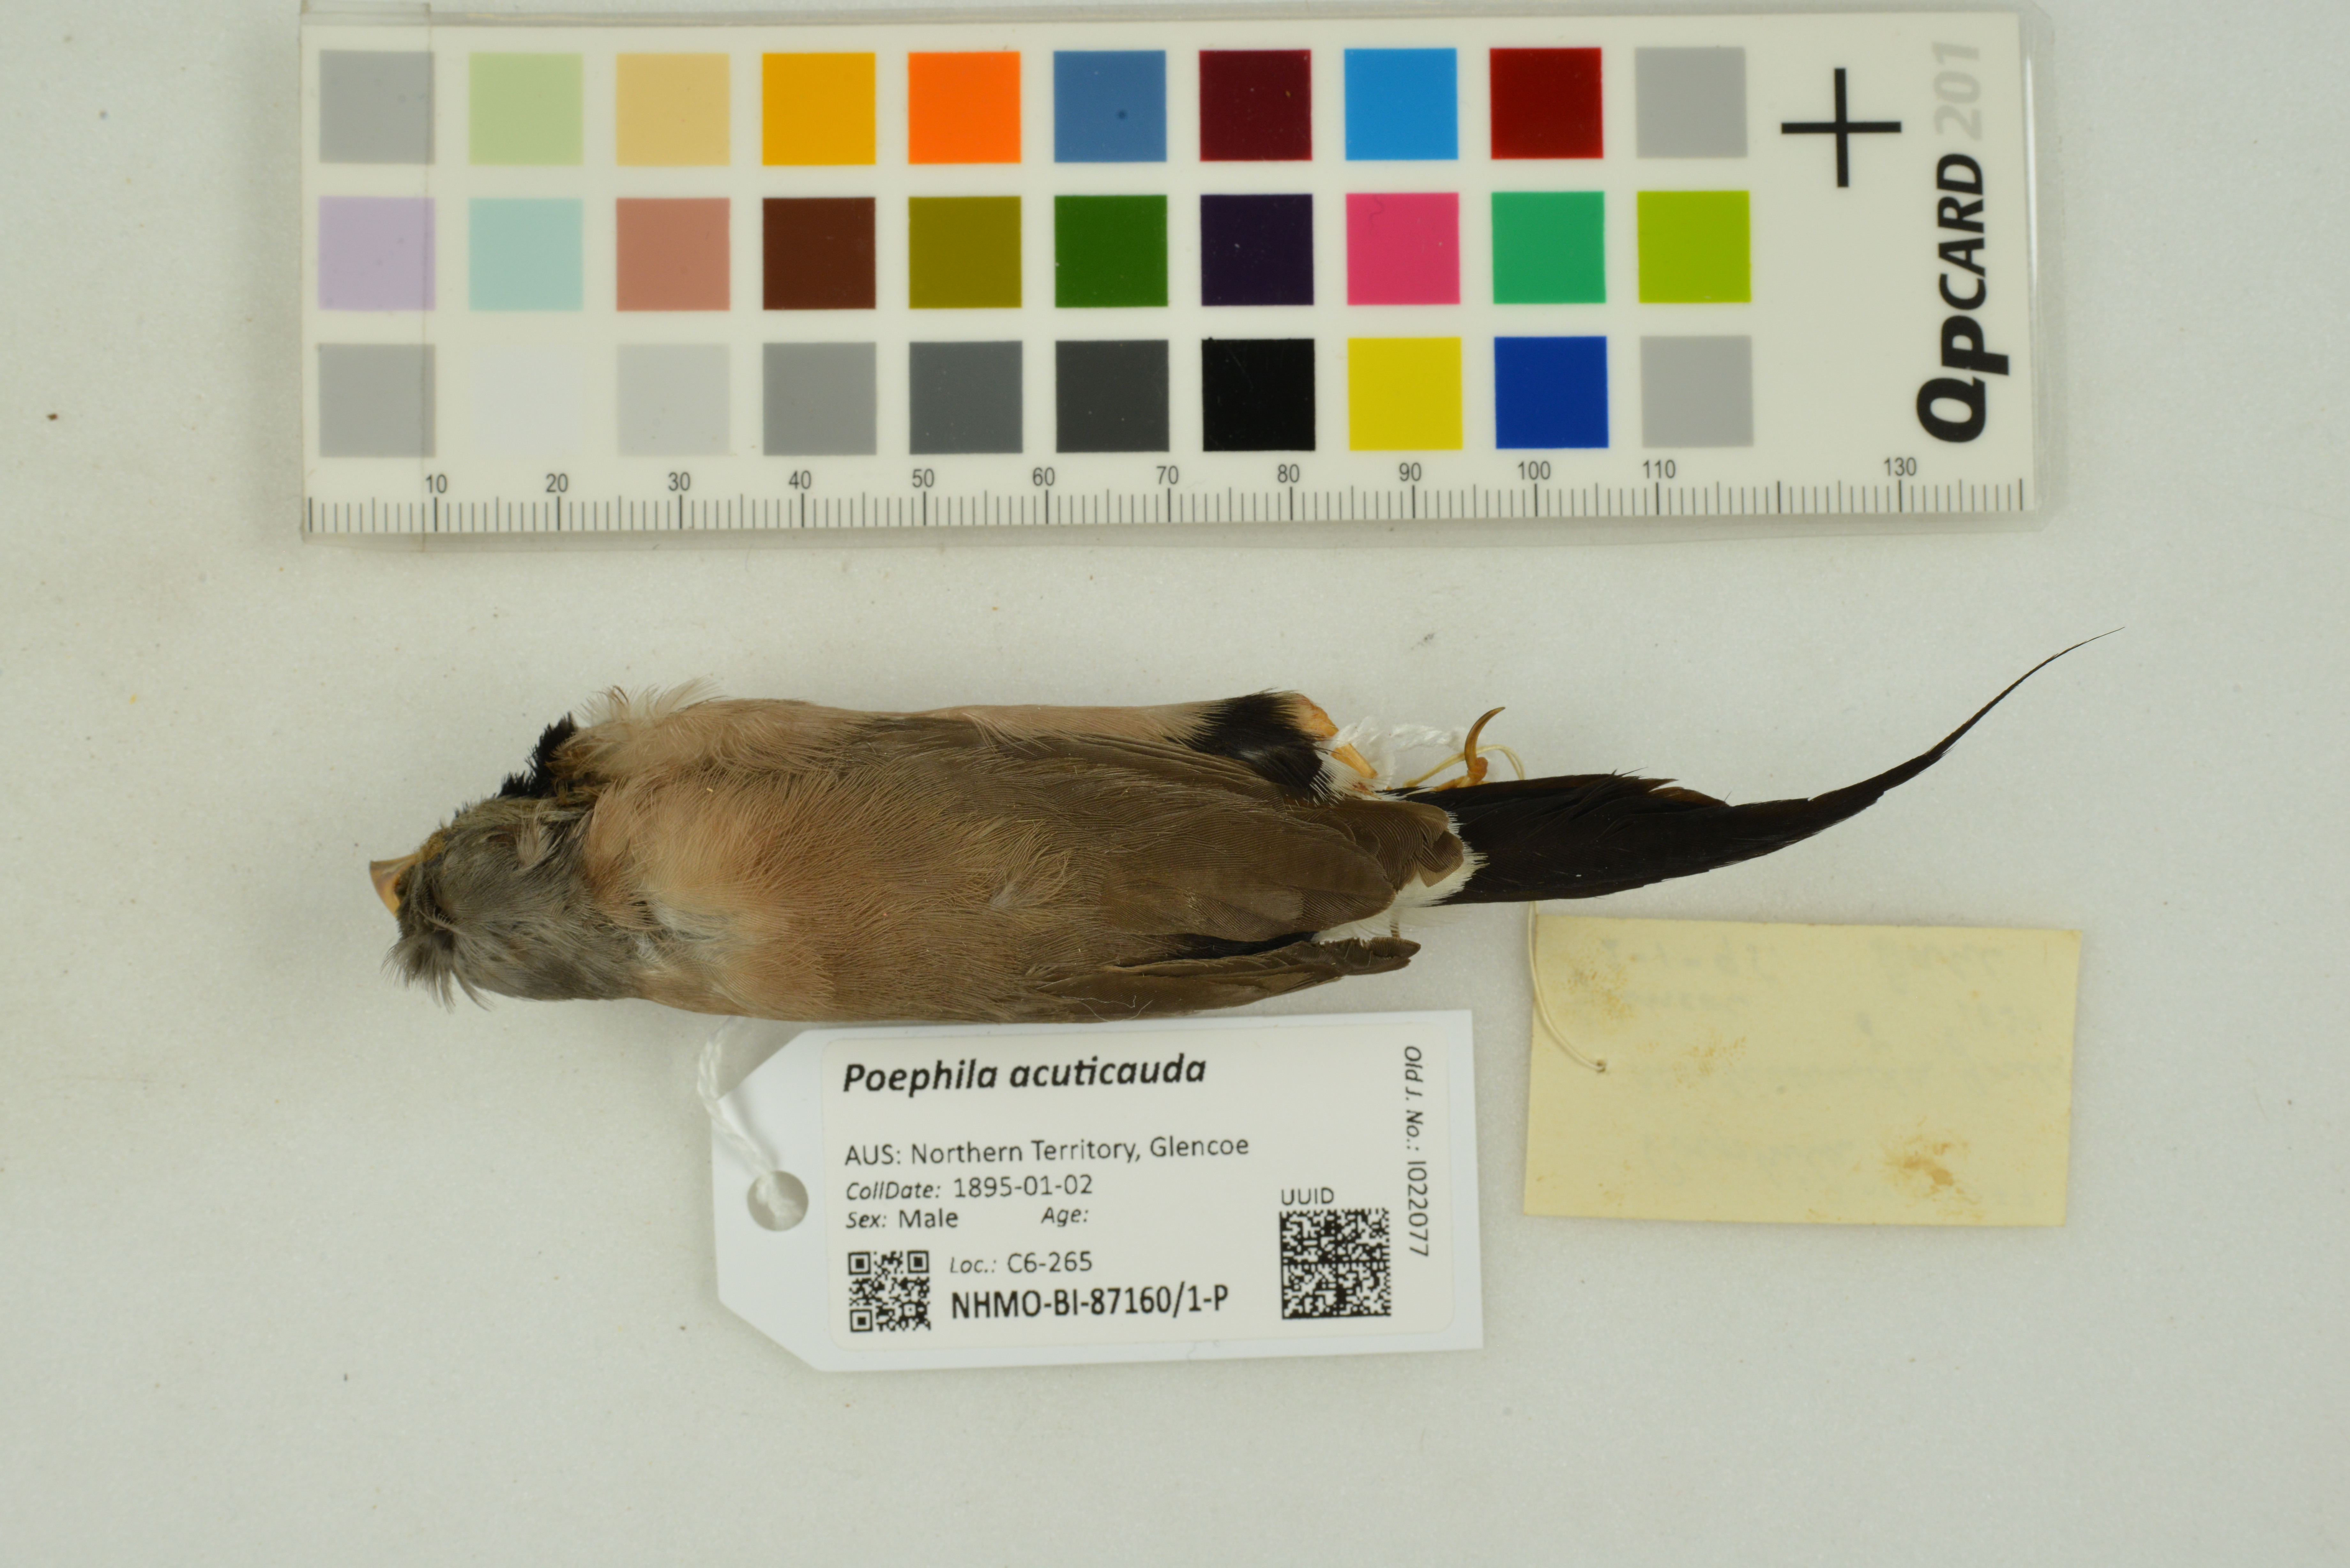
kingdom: Animalia
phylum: Chordata
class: Aves
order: Passeriformes
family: Estrildidae
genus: Poephila
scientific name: Poephila acuticauda
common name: Long-tailed finch
